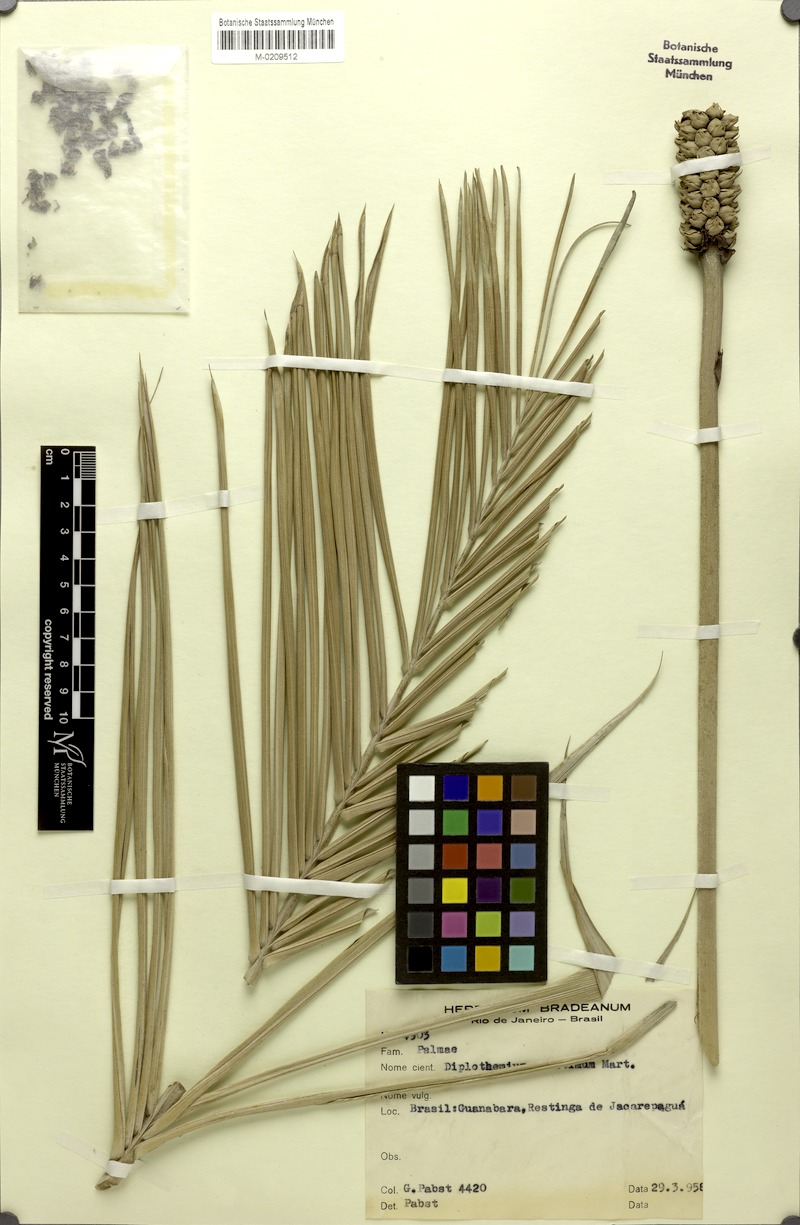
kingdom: Plantae
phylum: Tracheophyta
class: Liliopsida
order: Arecales
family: Arecaceae
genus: Allagoptera
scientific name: Allagoptera arenaria
